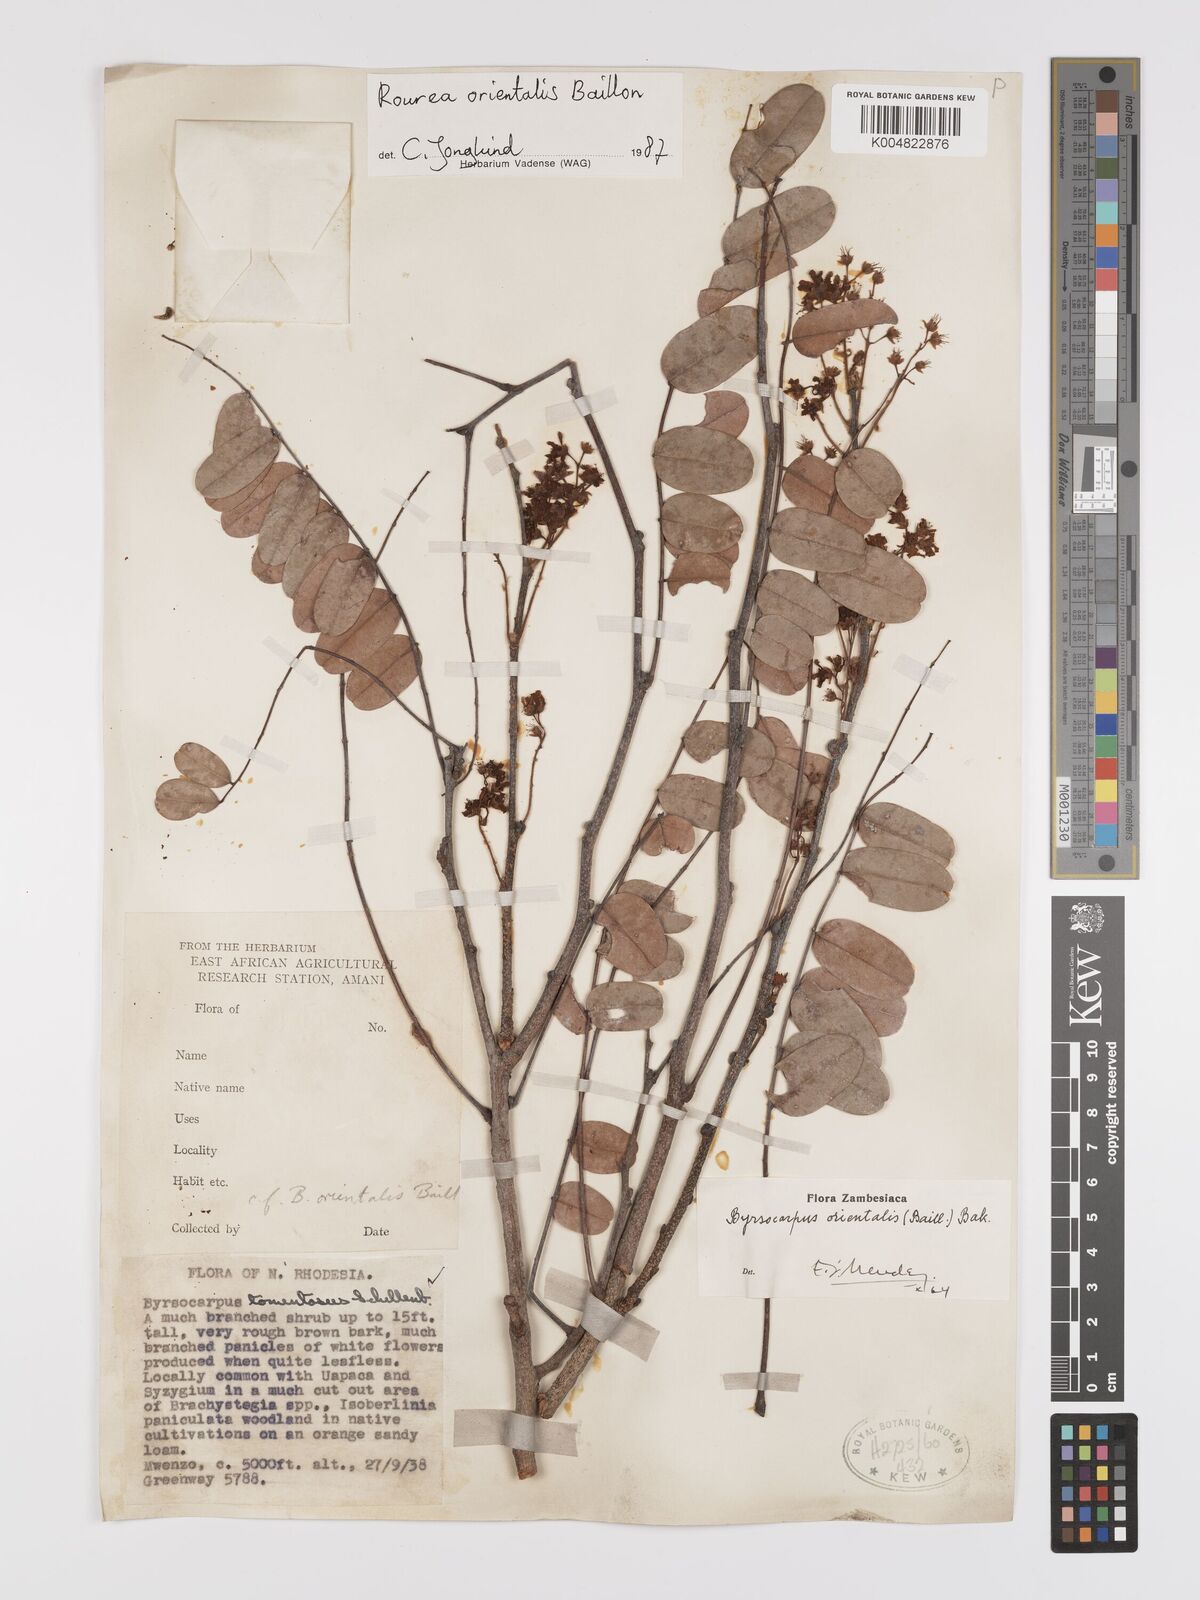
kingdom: Plantae
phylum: Tracheophyta
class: Magnoliopsida
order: Oxalidales
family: Connaraceae
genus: Rourea
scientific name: Rourea orientalis
